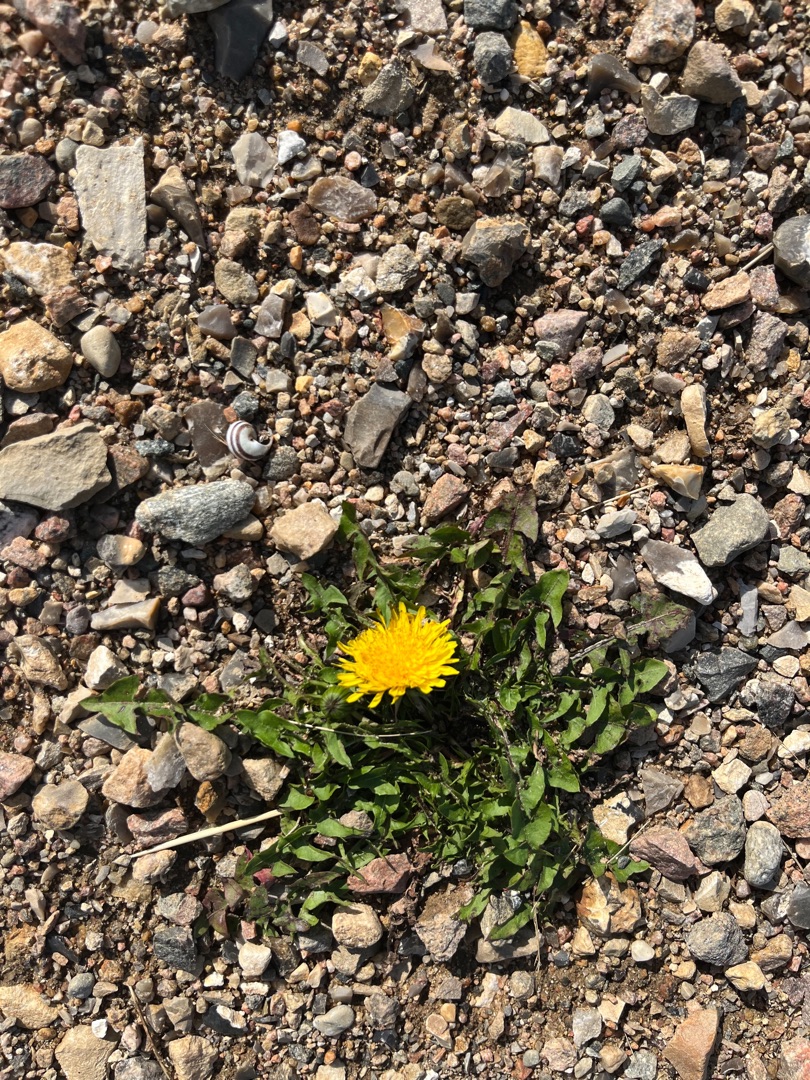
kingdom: Plantae
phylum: Tracheophyta
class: Magnoliopsida
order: Asterales
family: Asteraceae
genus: Taraxacum
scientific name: Taraxacum
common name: Mælkebøtteslægten
